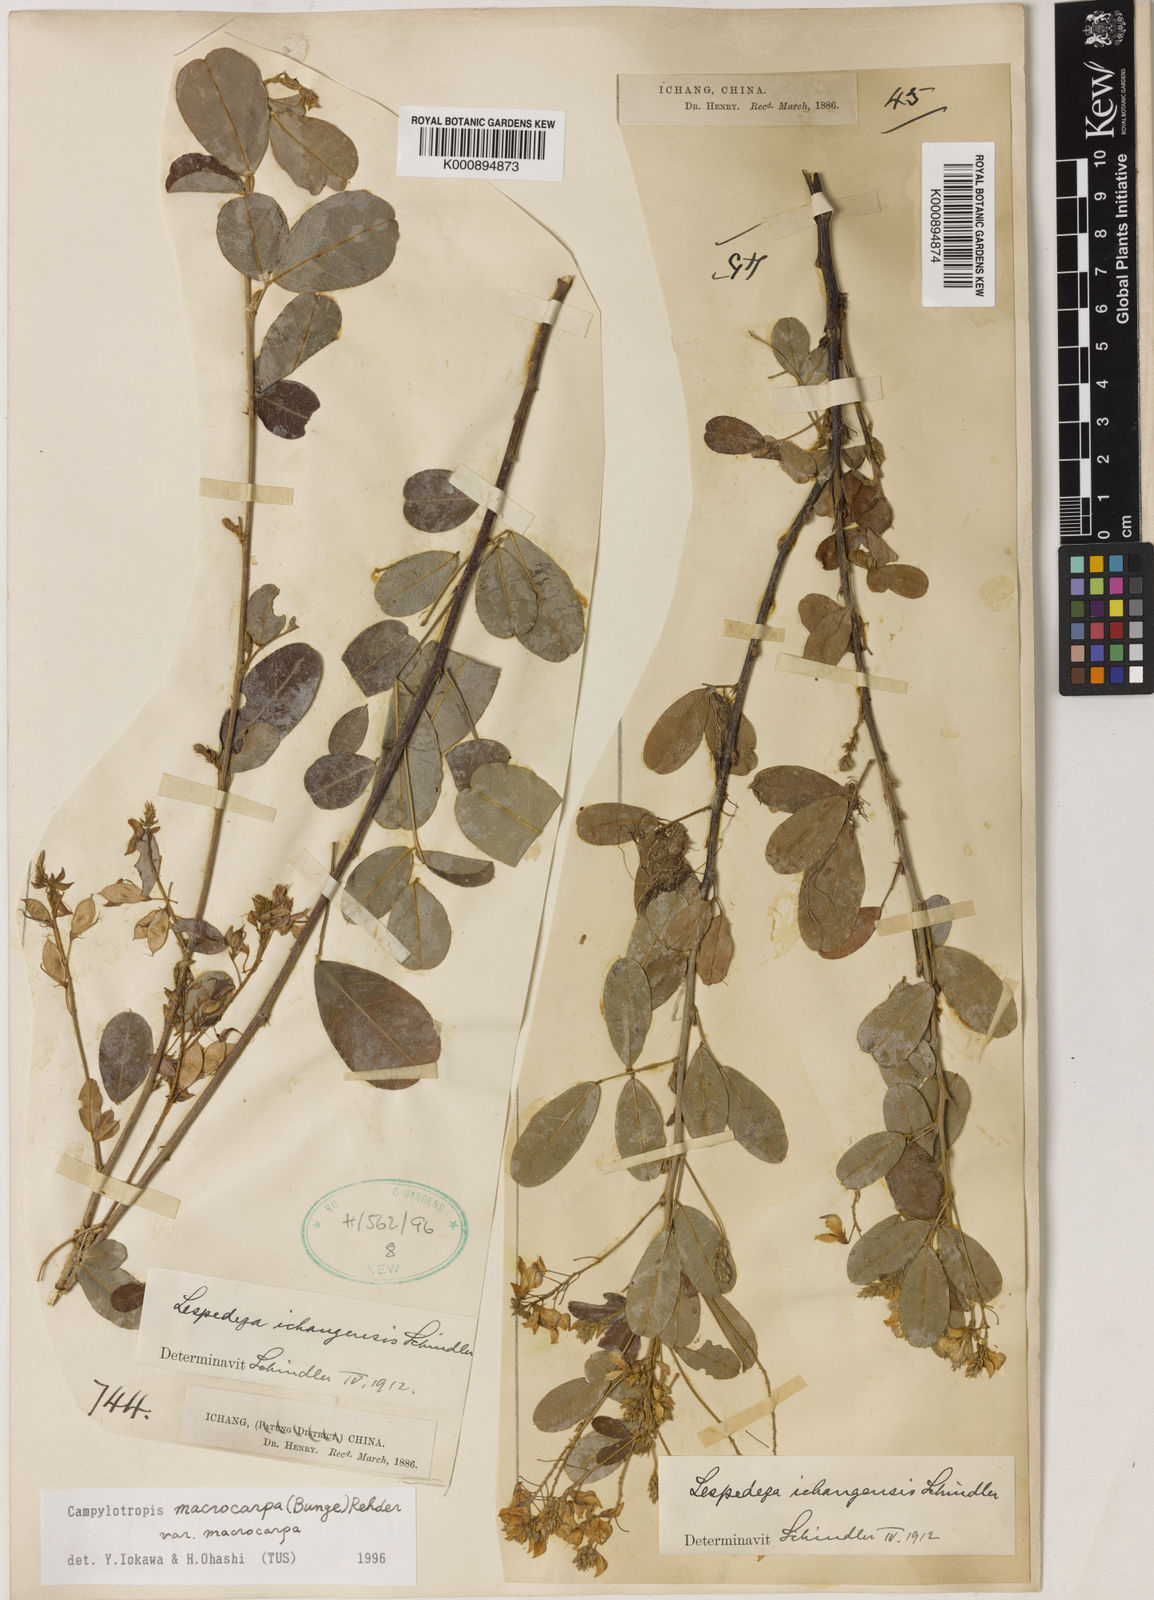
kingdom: Plantae
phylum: Tracheophyta
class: Magnoliopsida
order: Fabales
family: Fabaceae
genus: Campylotropis
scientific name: Campylotropis macrocarpa
